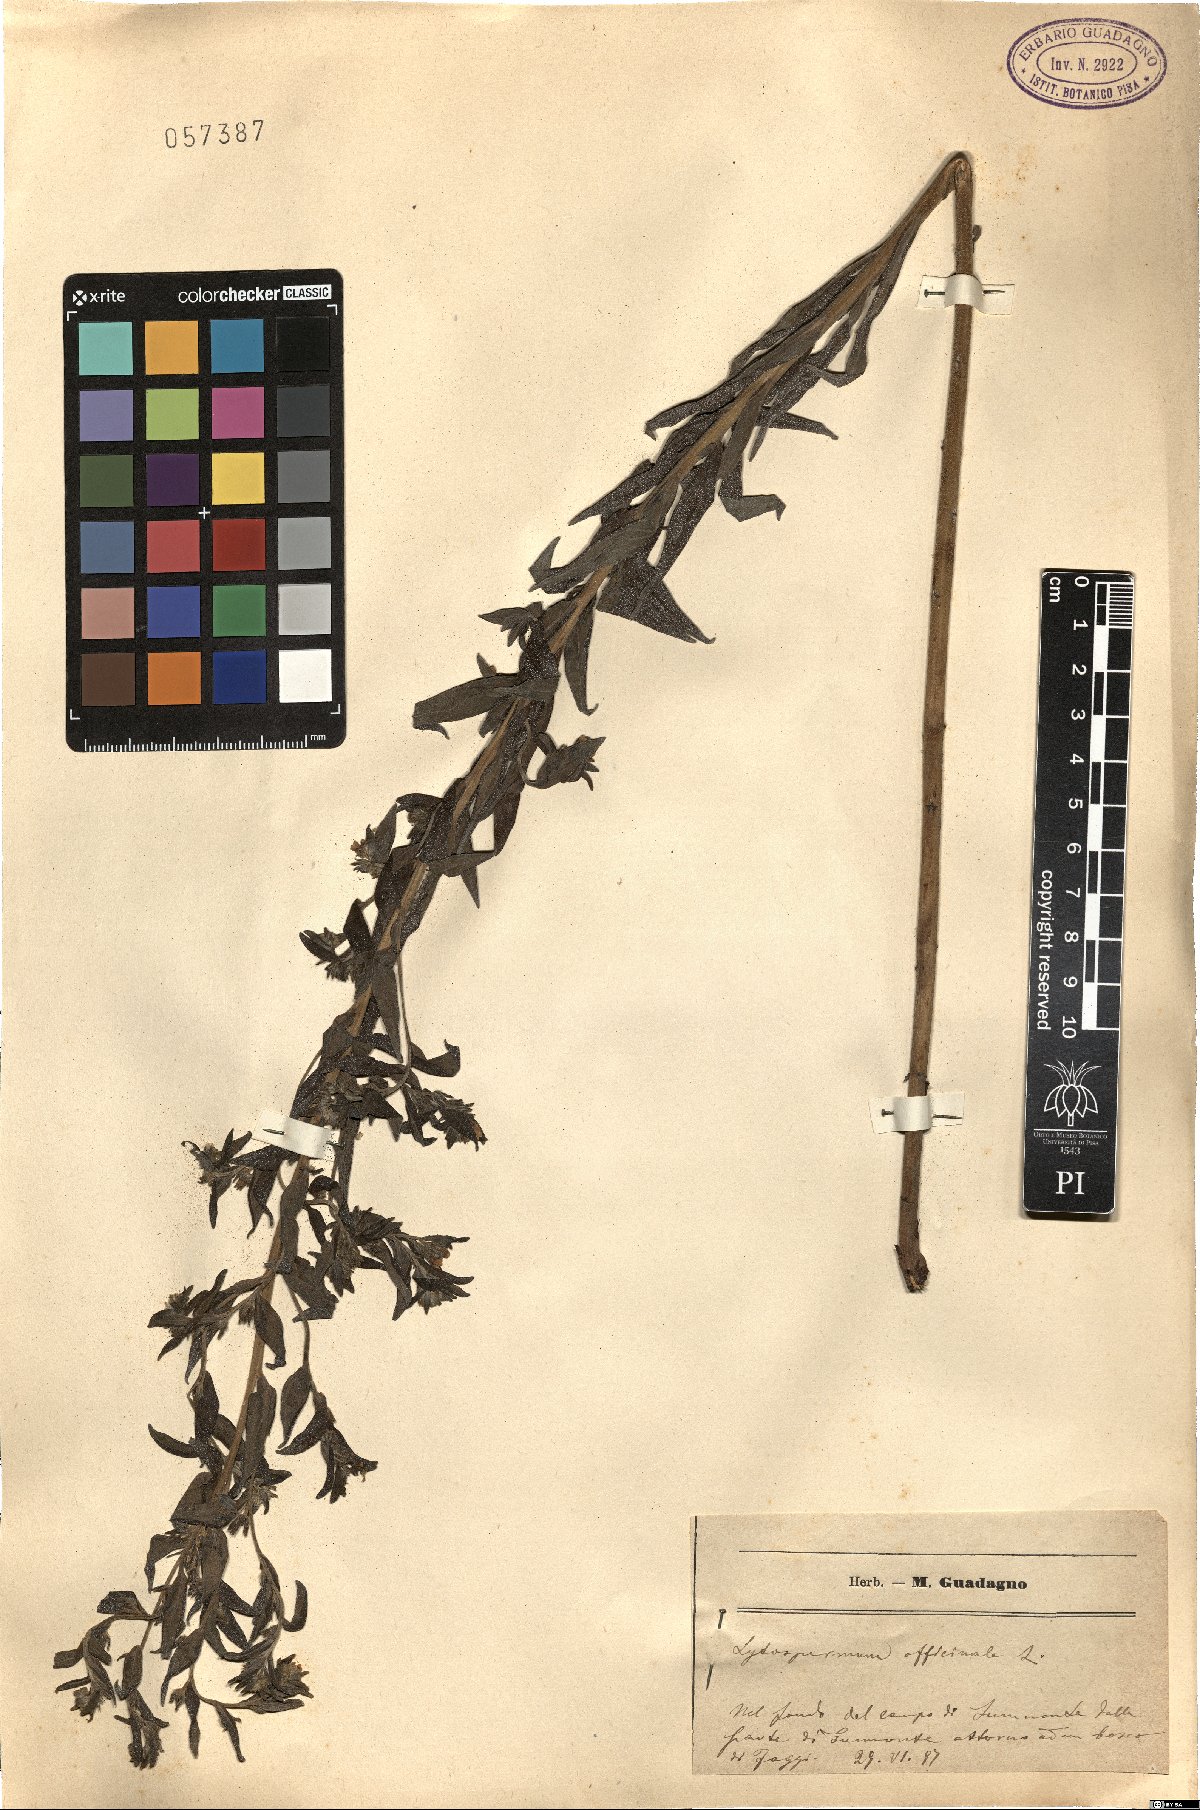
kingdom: Plantae
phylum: Tracheophyta
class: Magnoliopsida
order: Boraginales
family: Boraginaceae
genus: Lithospermum
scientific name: Lithospermum officinale
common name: Common gromwell
